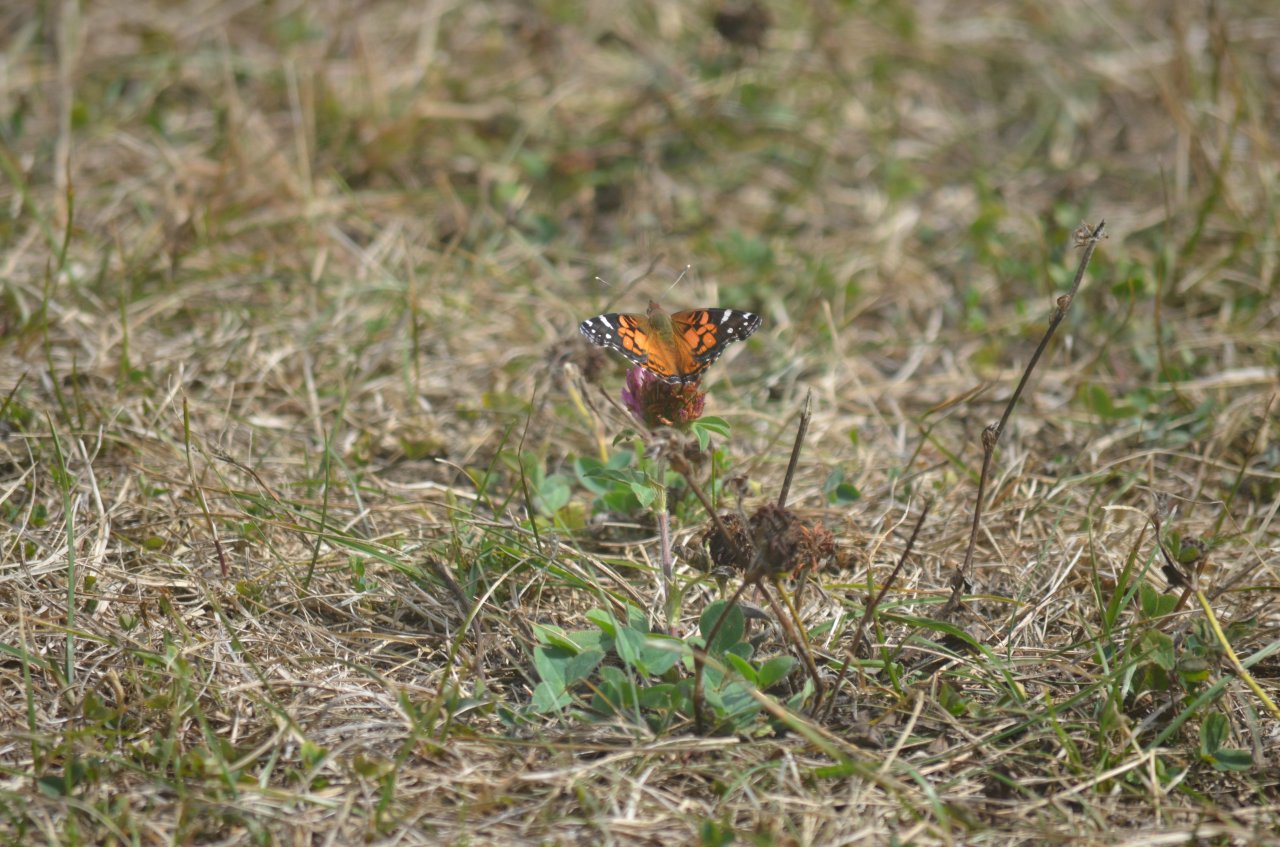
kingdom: Animalia
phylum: Arthropoda
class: Insecta
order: Lepidoptera
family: Nymphalidae
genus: Vanessa
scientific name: Vanessa virginiensis
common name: American Lady
